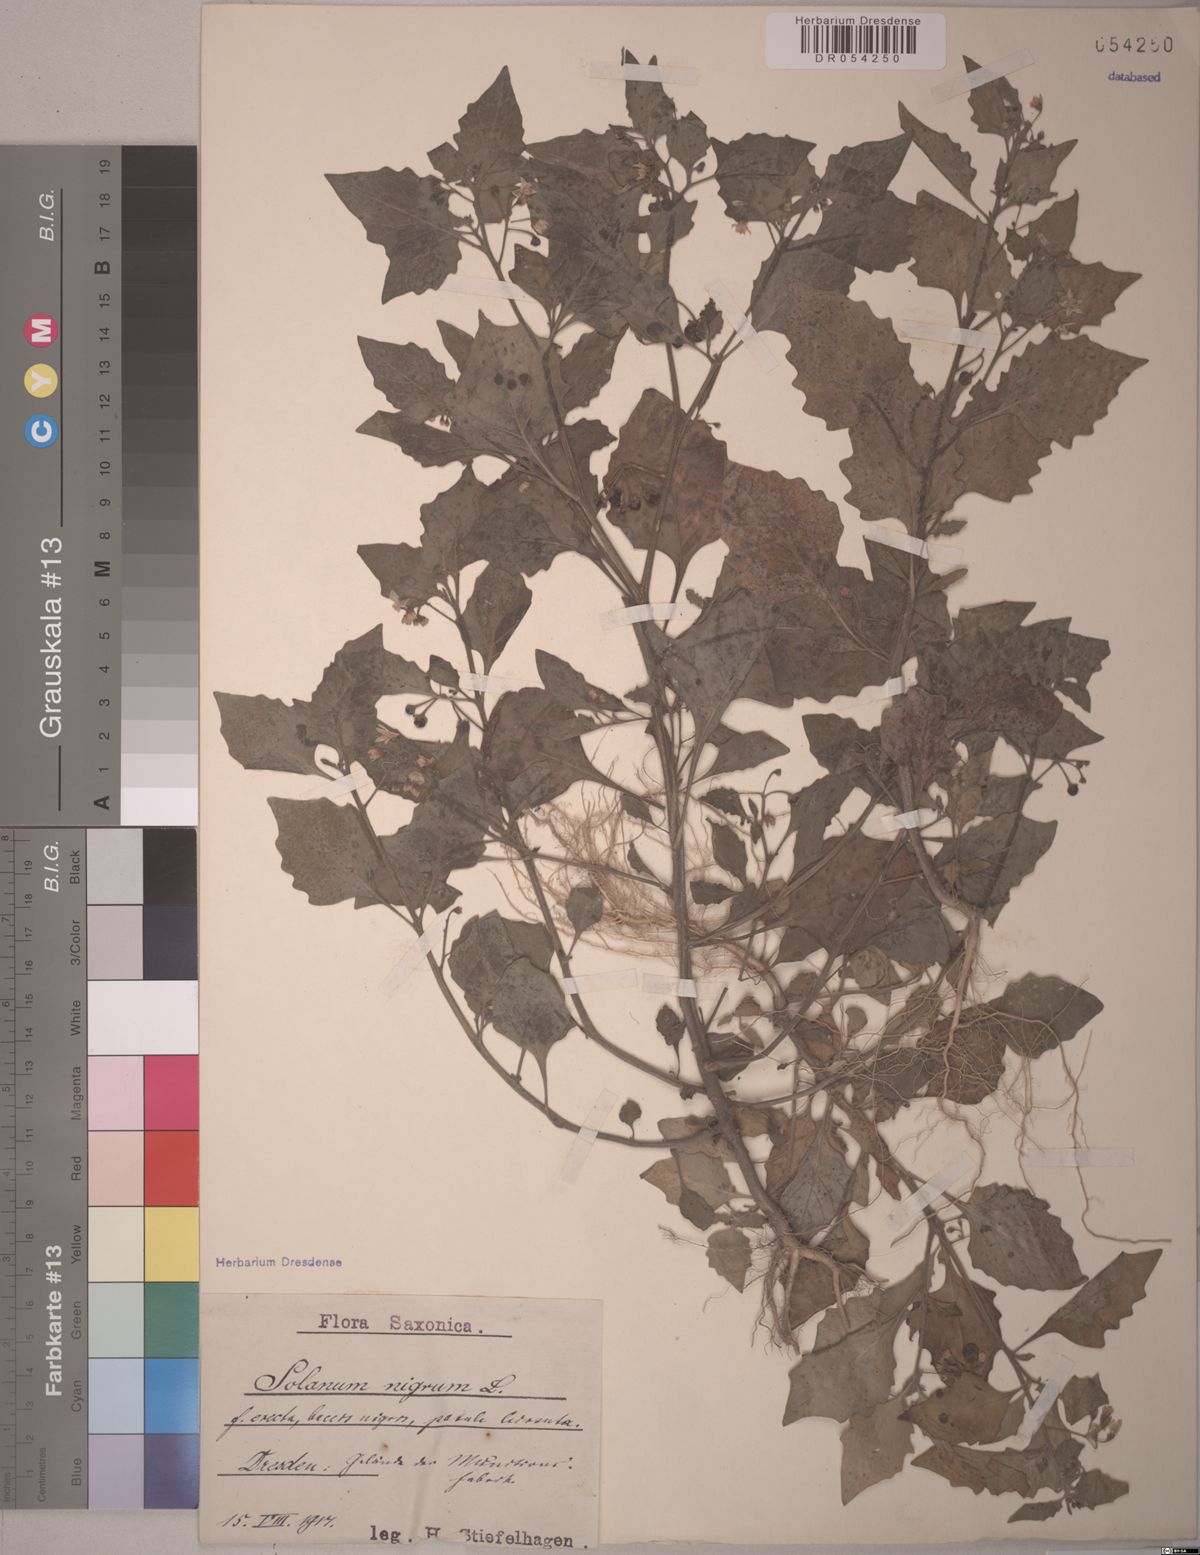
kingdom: Plantae
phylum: Tracheophyta
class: Magnoliopsida
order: Solanales
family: Solanaceae
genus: Solanum
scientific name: Solanum nigrum
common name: Black nightshade
